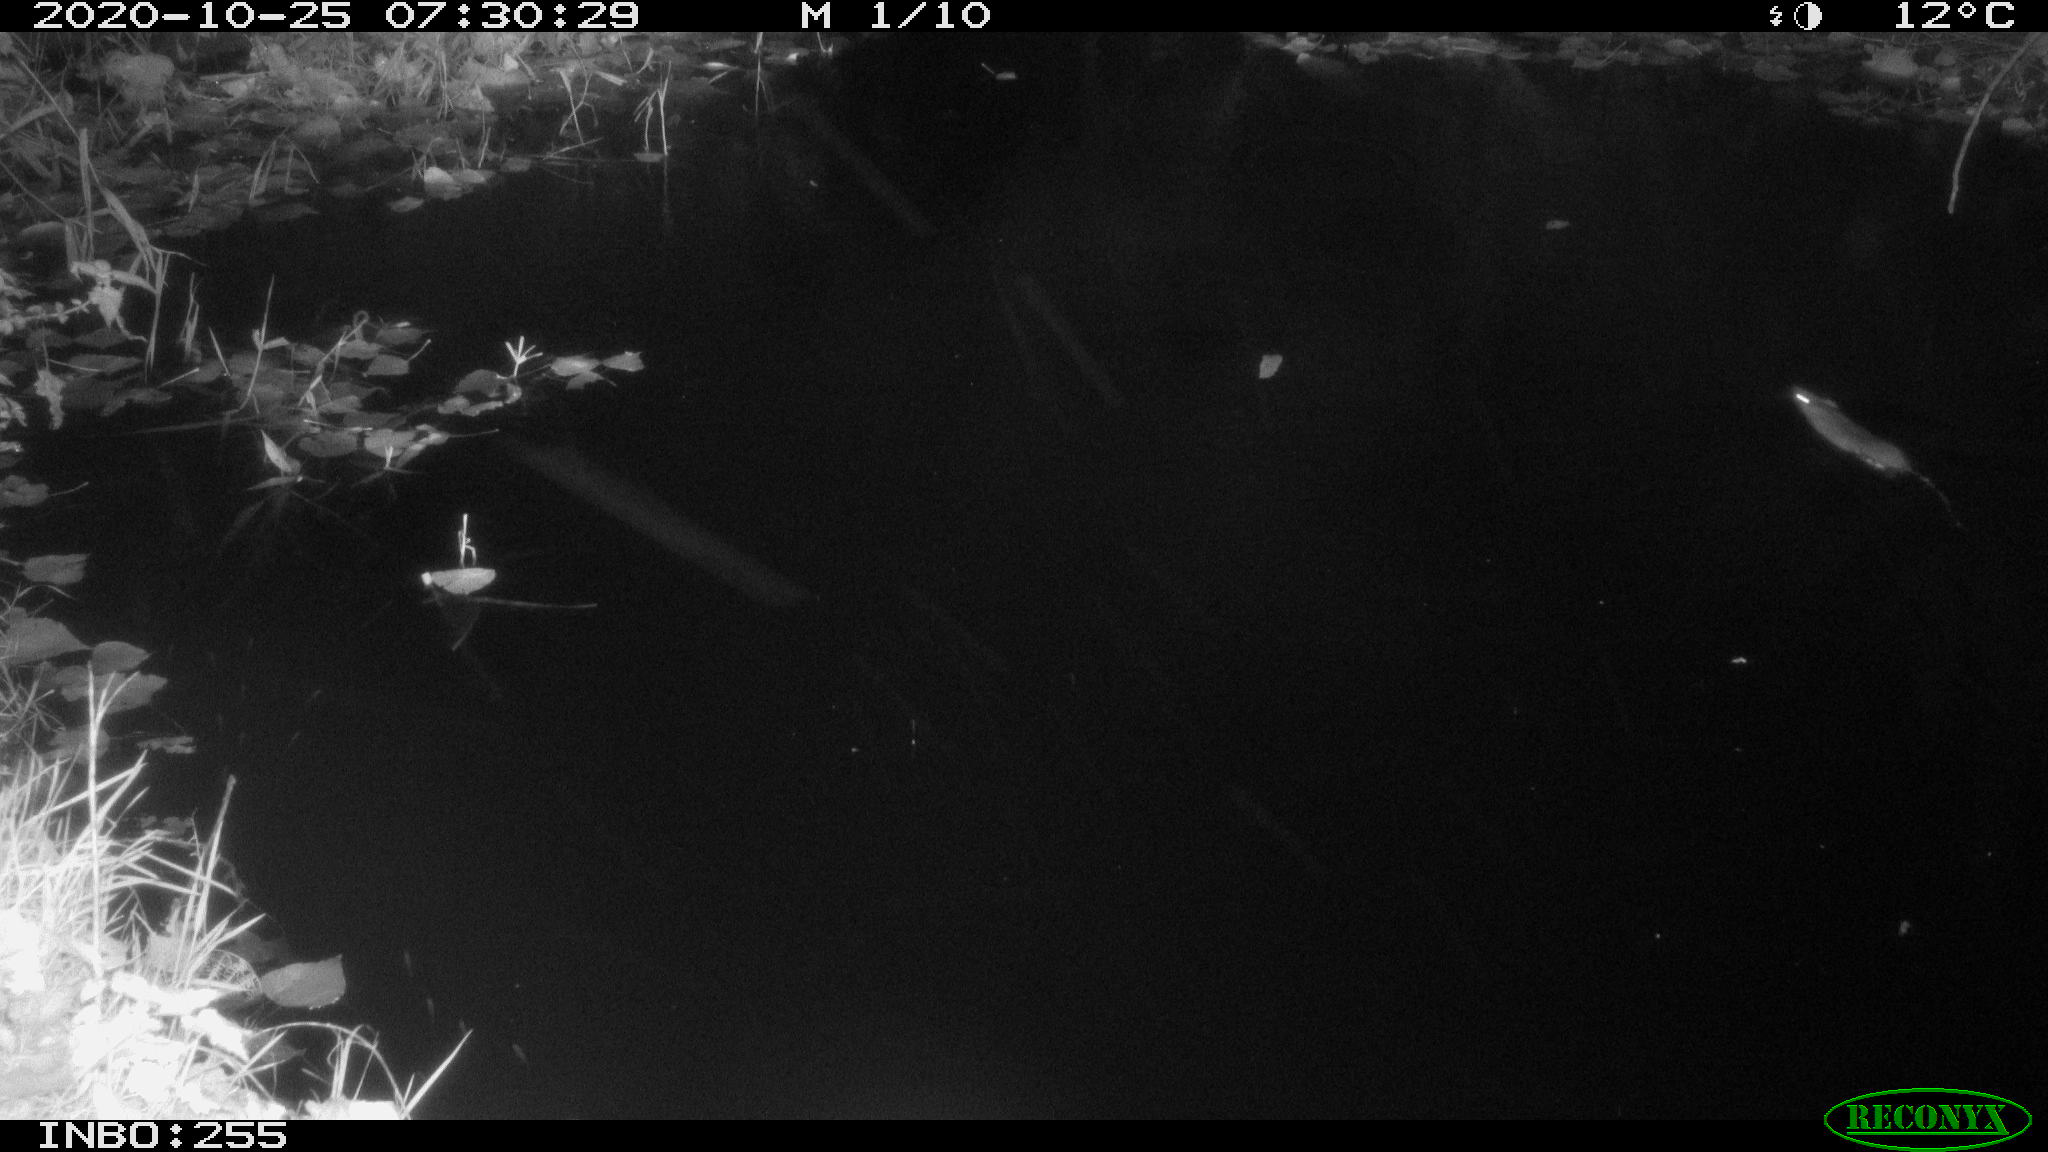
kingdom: Animalia
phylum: Chordata
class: Mammalia
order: Rodentia
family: Muridae
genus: Rattus
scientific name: Rattus norvegicus
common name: Brown rat
